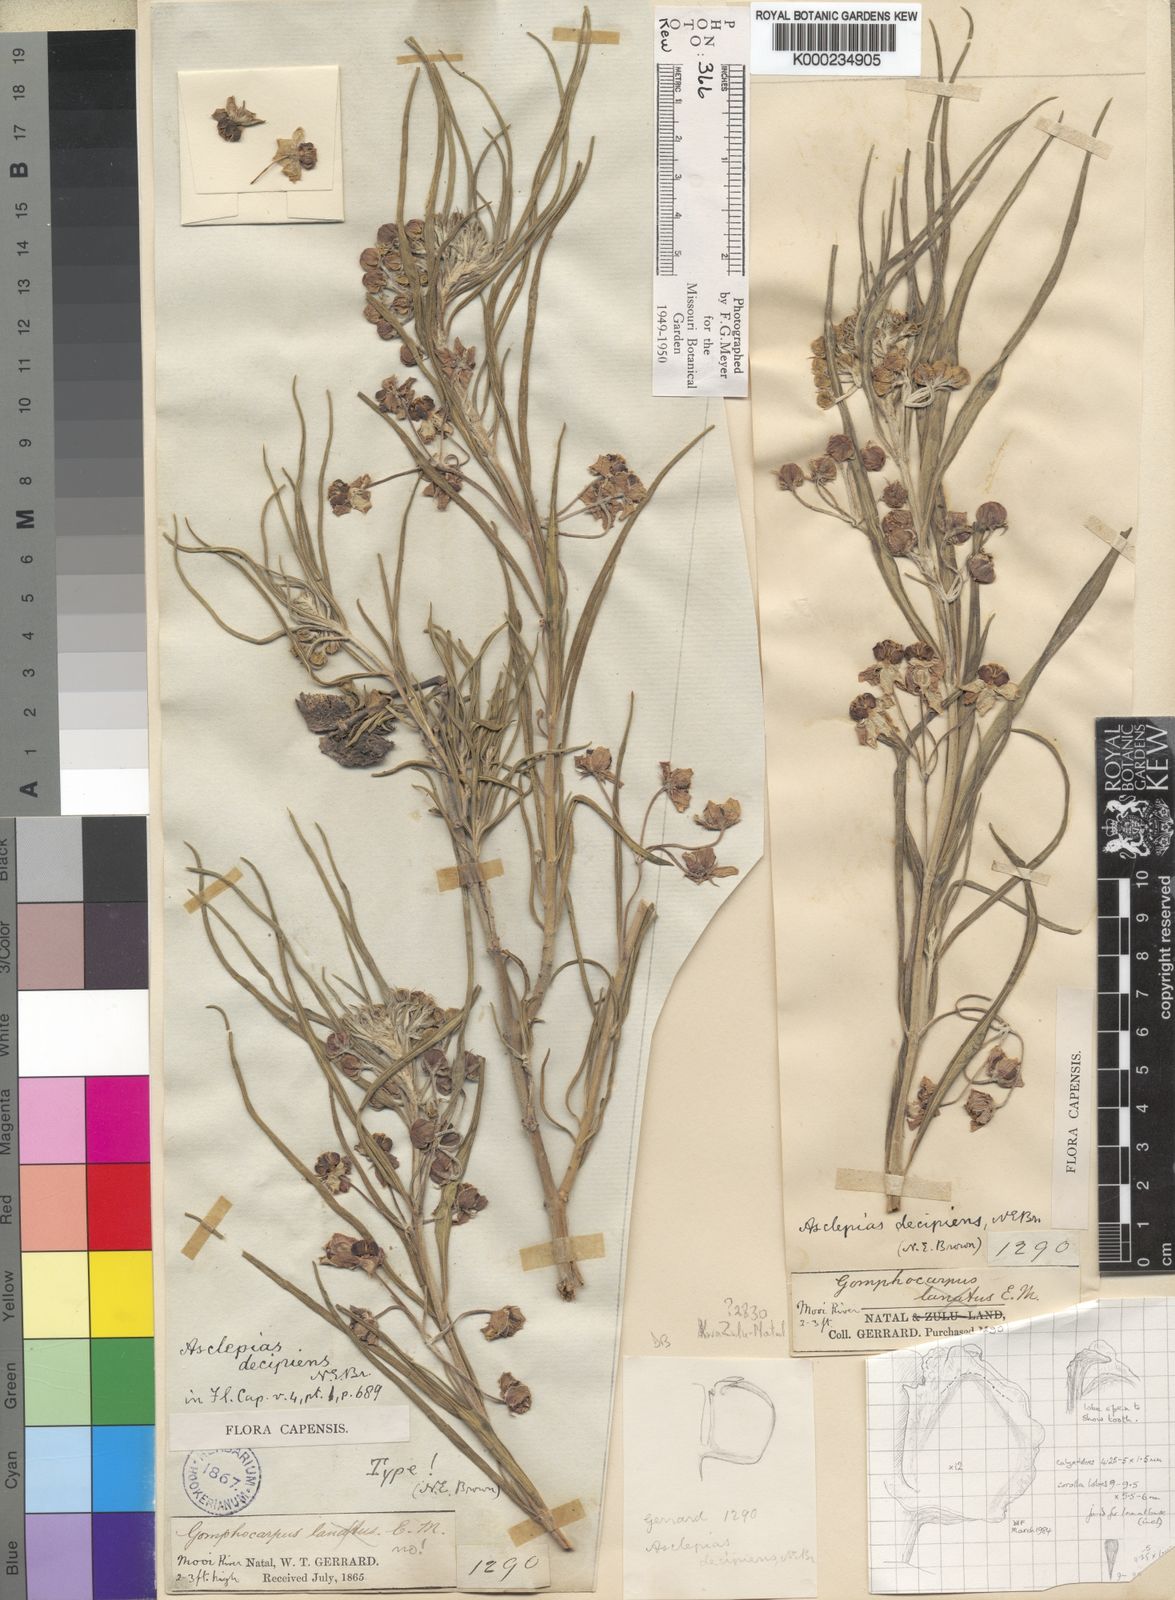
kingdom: Plantae
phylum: Tracheophyta
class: Magnoliopsida
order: Gentianales
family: Apocynaceae
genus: Gomphocarpus
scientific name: Gomphocarpus fruticosus
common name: Milkweed
